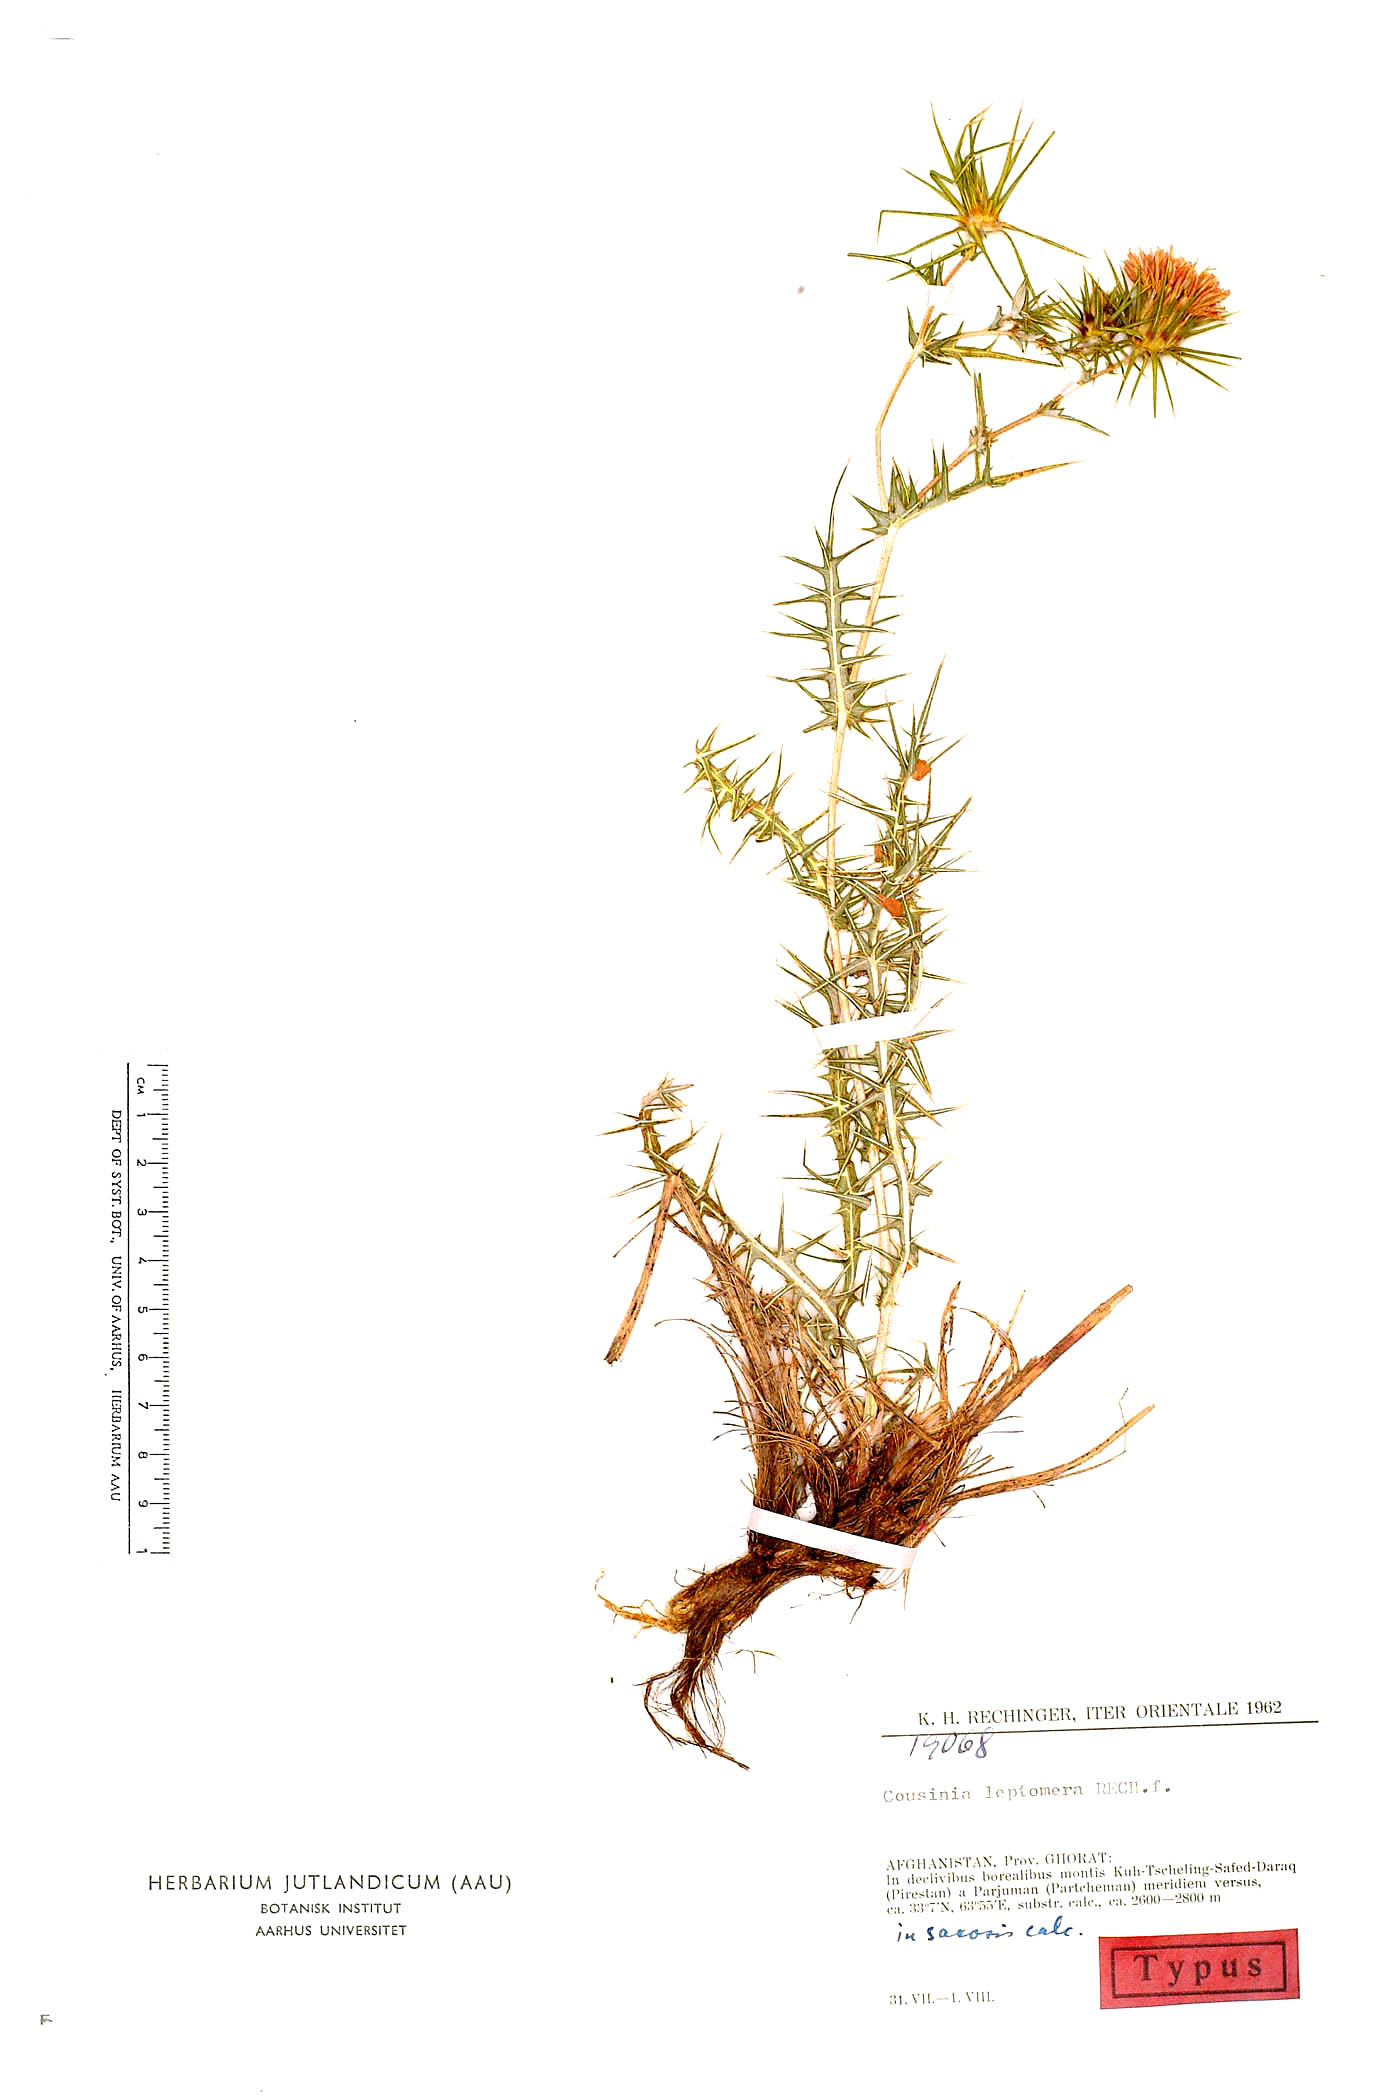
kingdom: Plantae
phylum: Tracheophyta
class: Magnoliopsida
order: Asterales
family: Asteraceae
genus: Cousinia
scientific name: Cousinia leptomera
